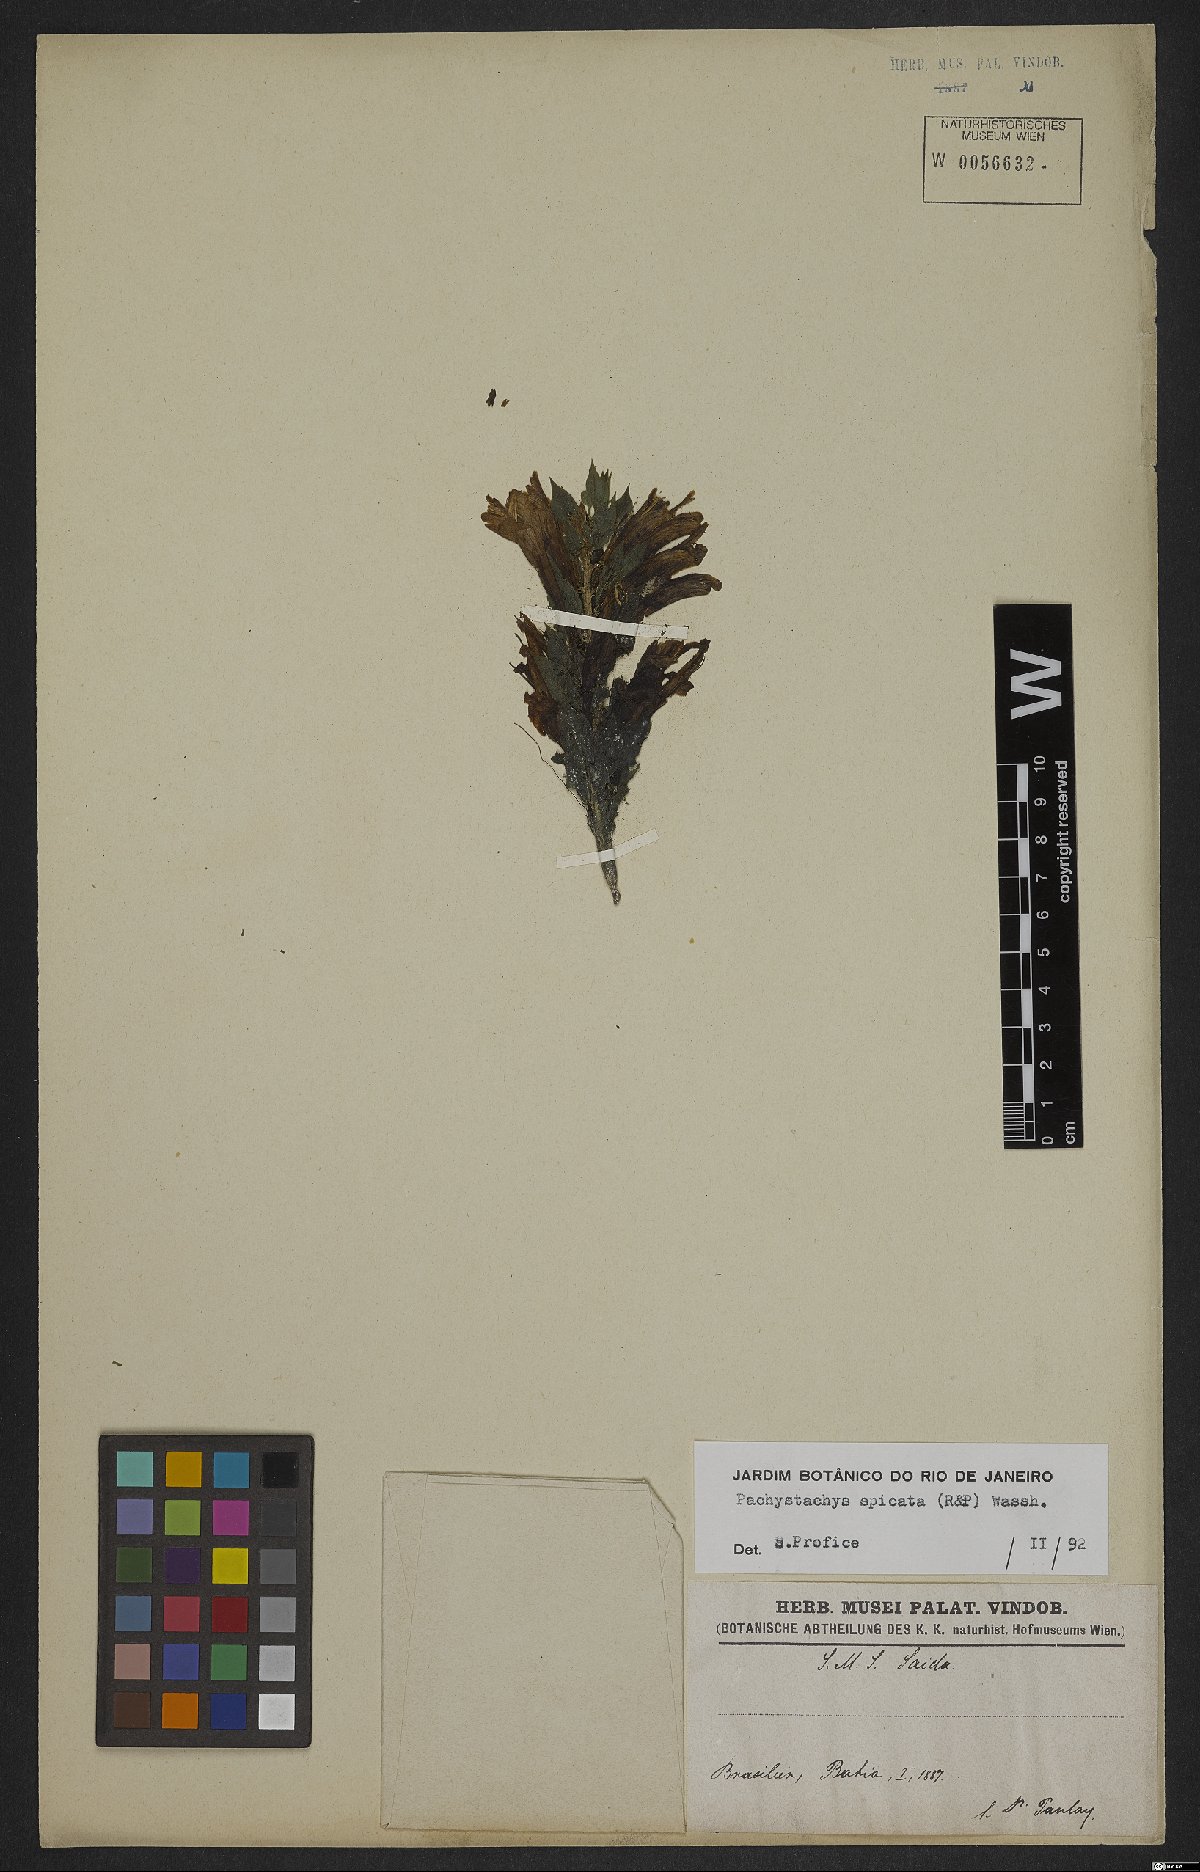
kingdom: Plantae
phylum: Tracheophyta
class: Magnoliopsida
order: Lamiales
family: Acanthaceae
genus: Pachystachys
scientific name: Pachystachys spicata
